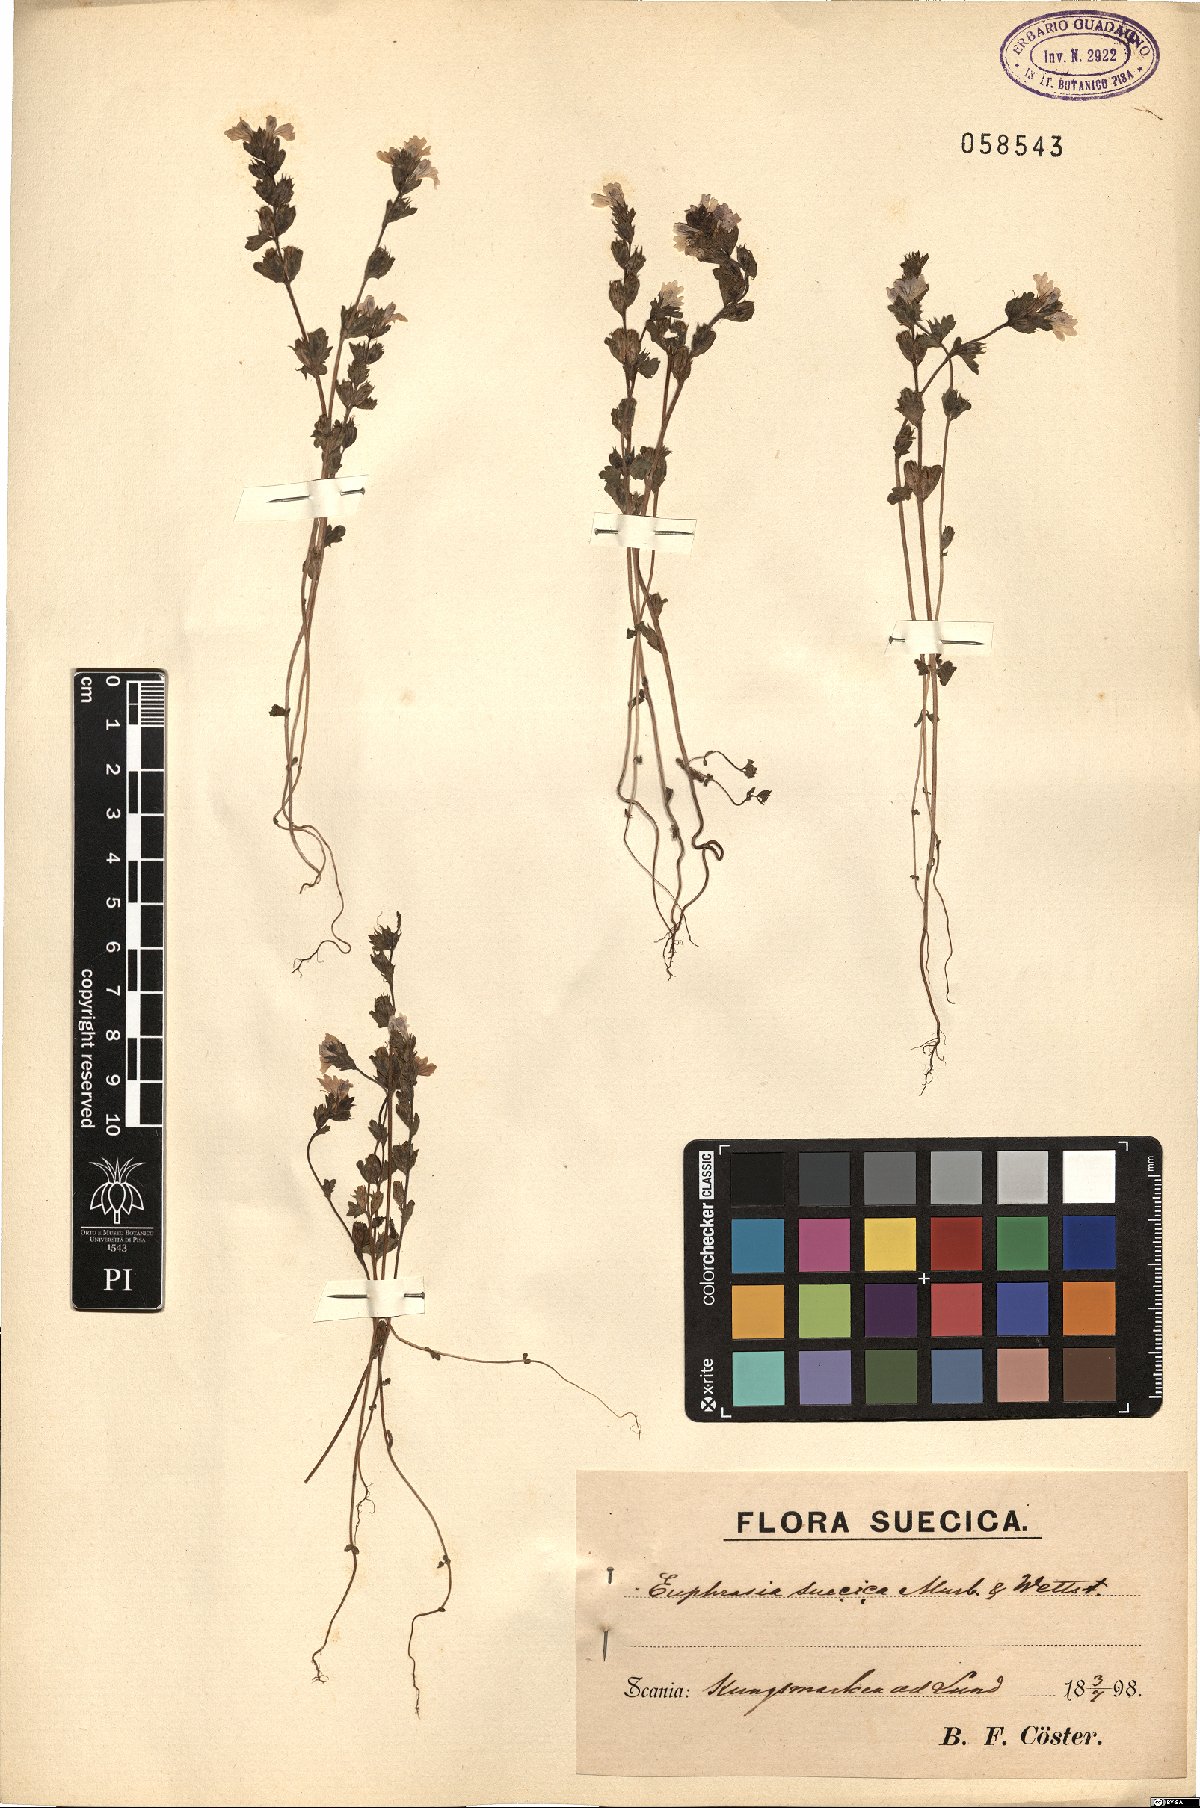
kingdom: Plantae
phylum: Tracheophyta
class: Magnoliopsida
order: Lamiales
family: Orobanchaceae
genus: Euphrasia
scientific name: Euphrasia stricta
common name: Drug eyebright
